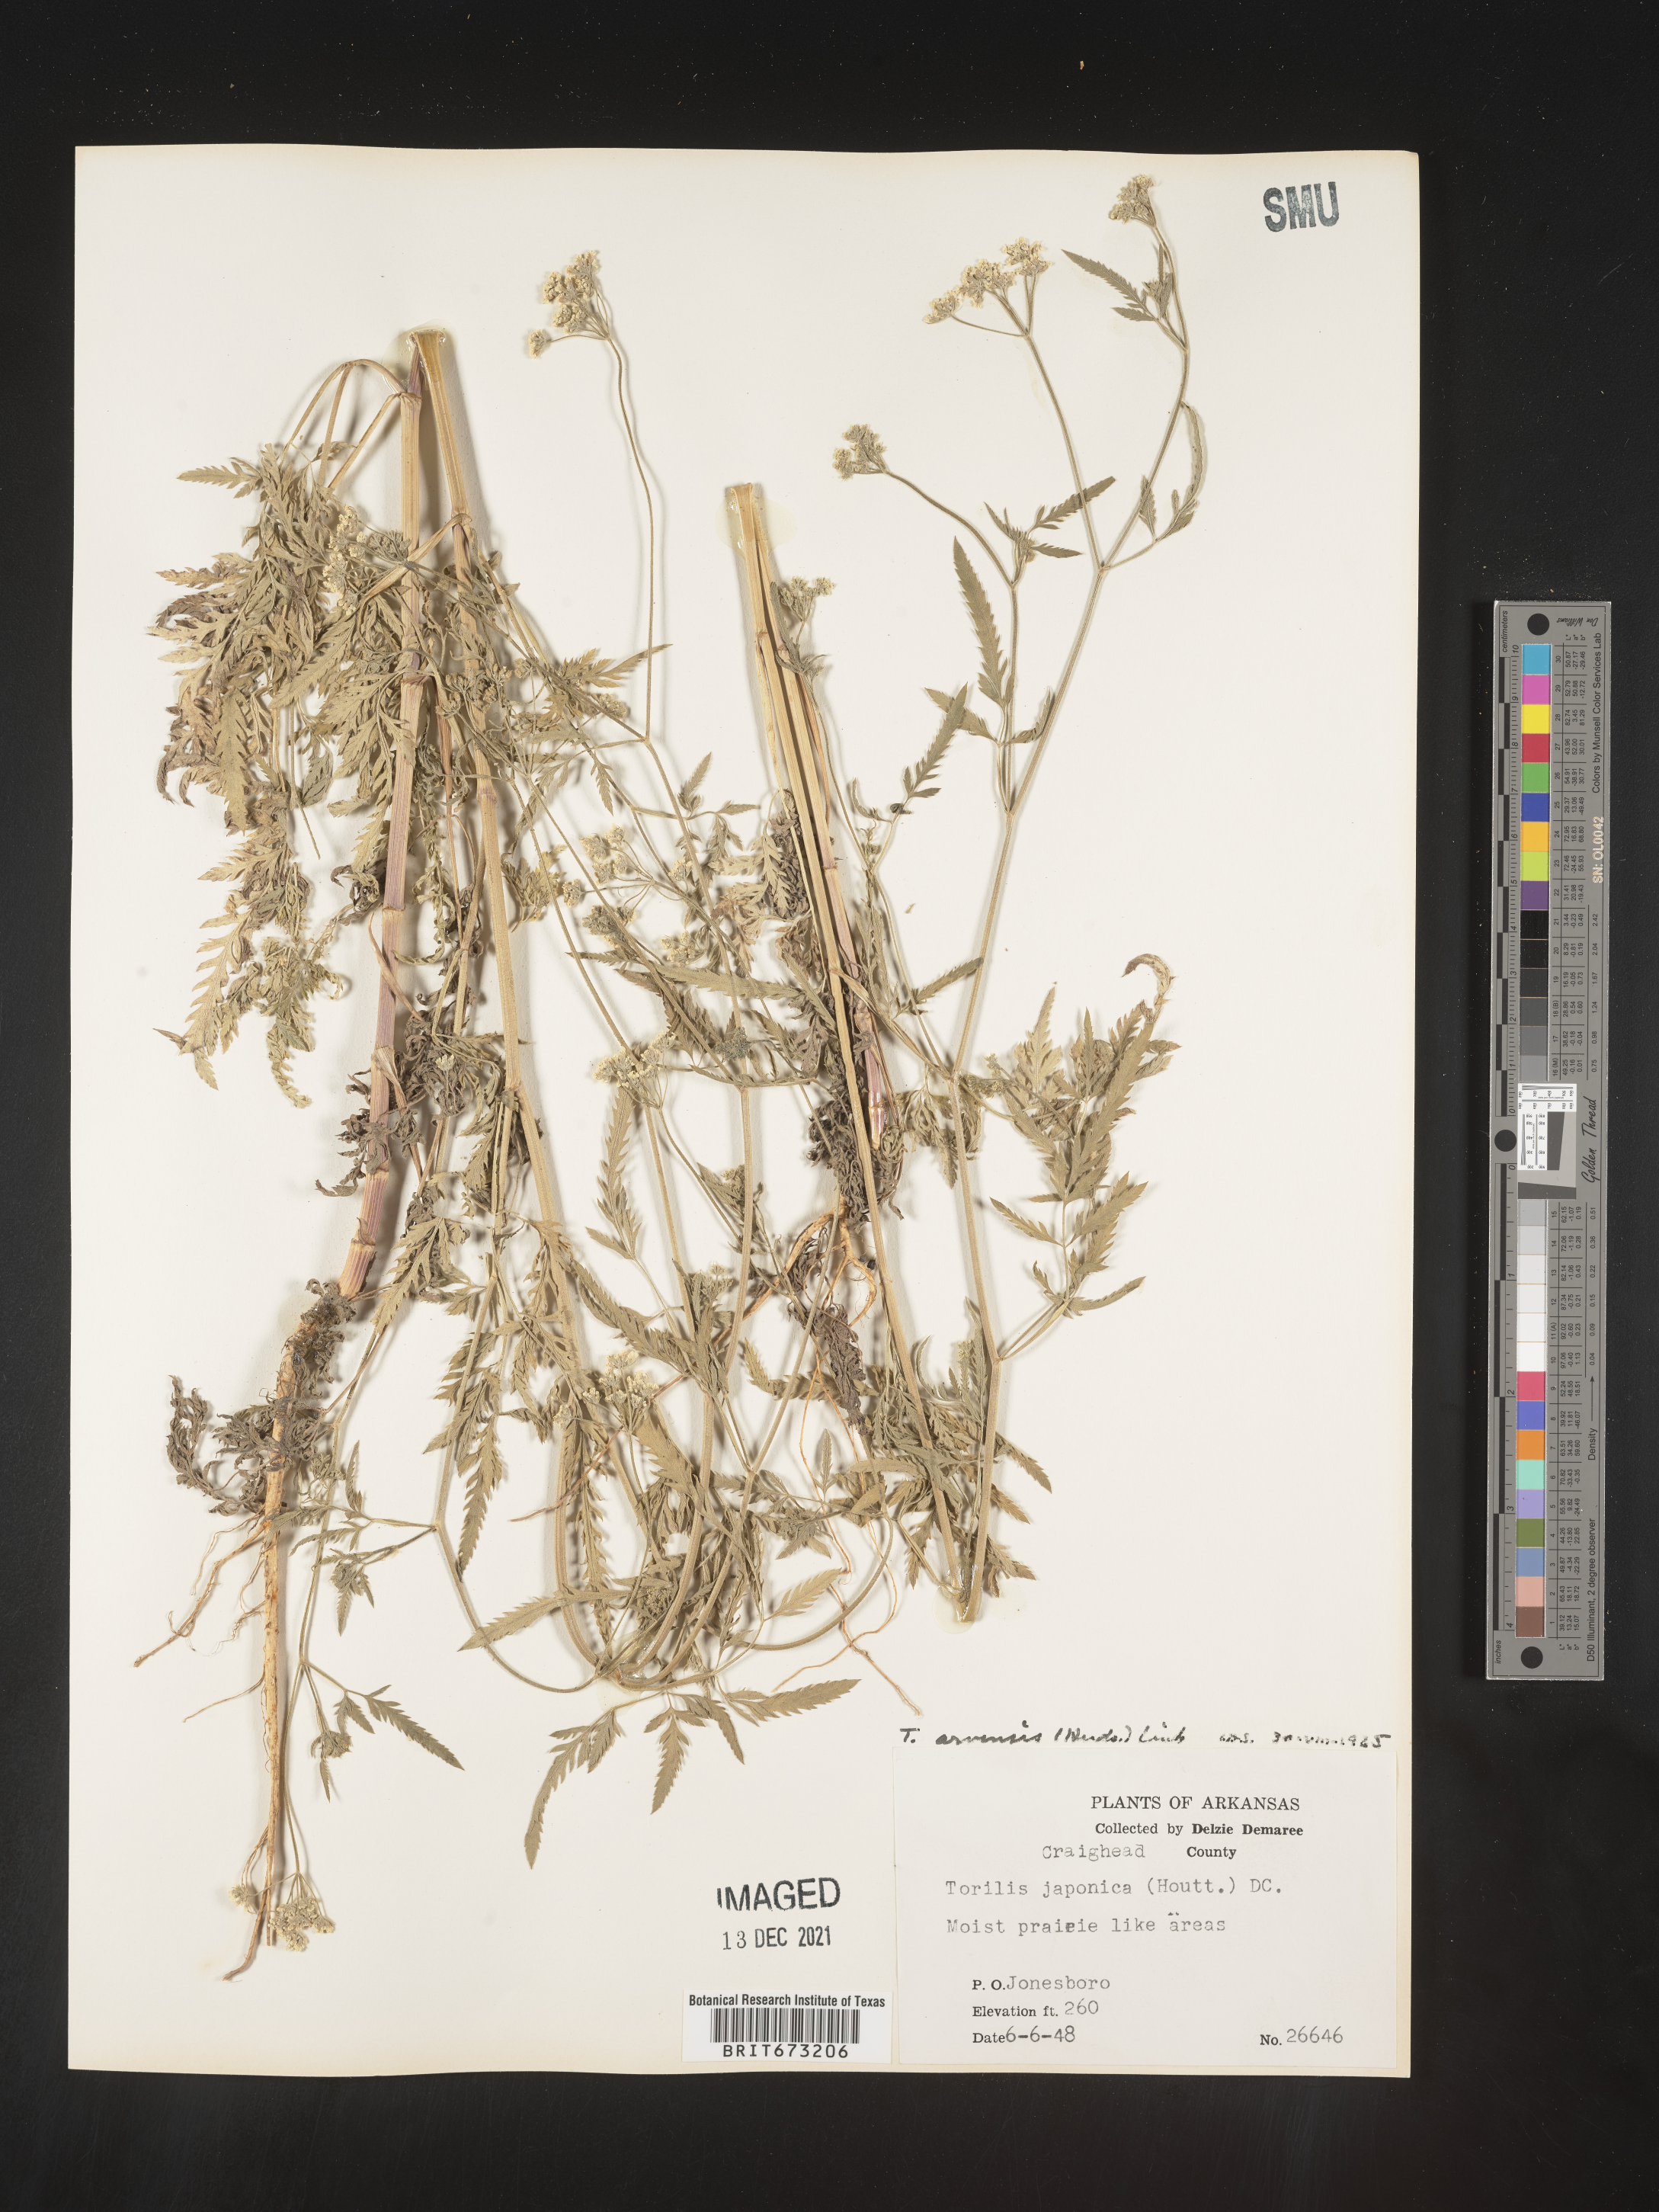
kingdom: Plantae
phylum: Tracheophyta
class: Magnoliopsida
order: Apiales
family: Apiaceae
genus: Torilis
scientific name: Torilis arvensis
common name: Spreading hedge-parsley
